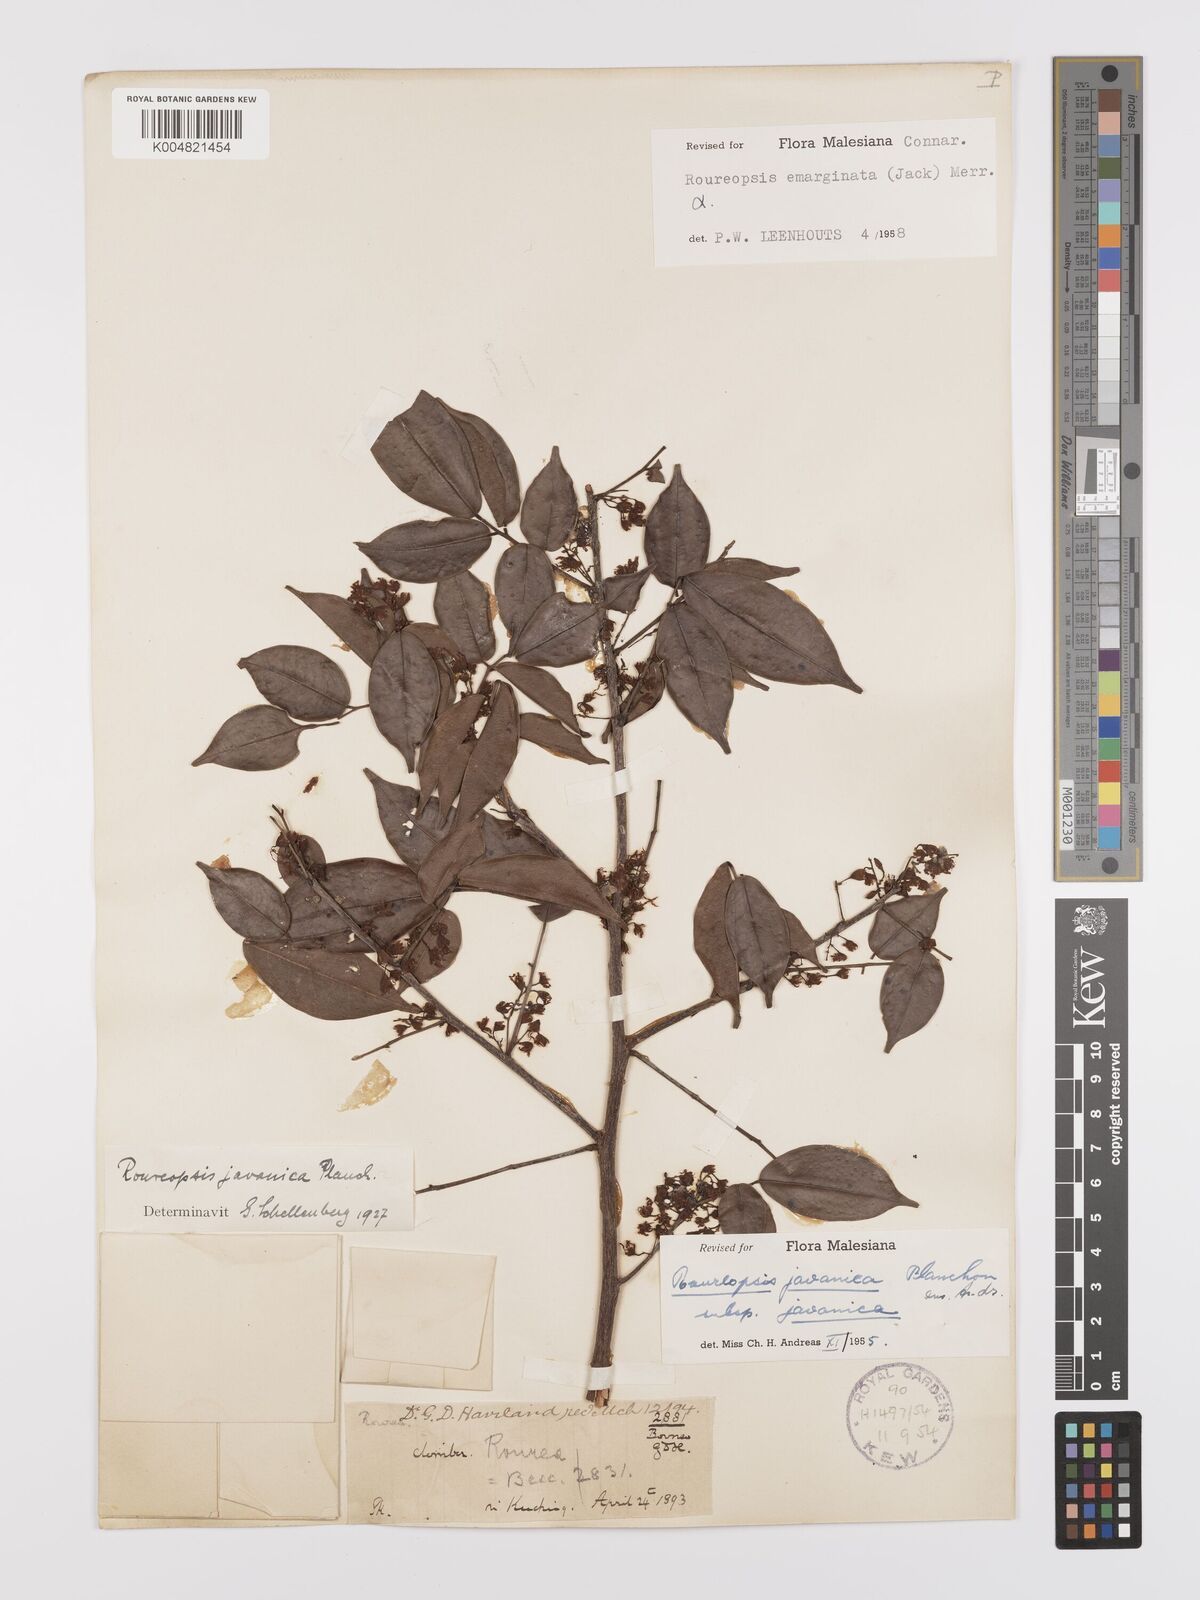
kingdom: Plantae
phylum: Tracheophyta
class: Magnoliopsida
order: Oxalidales
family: Connaraceae
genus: Rourea
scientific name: Rourea emarginata
